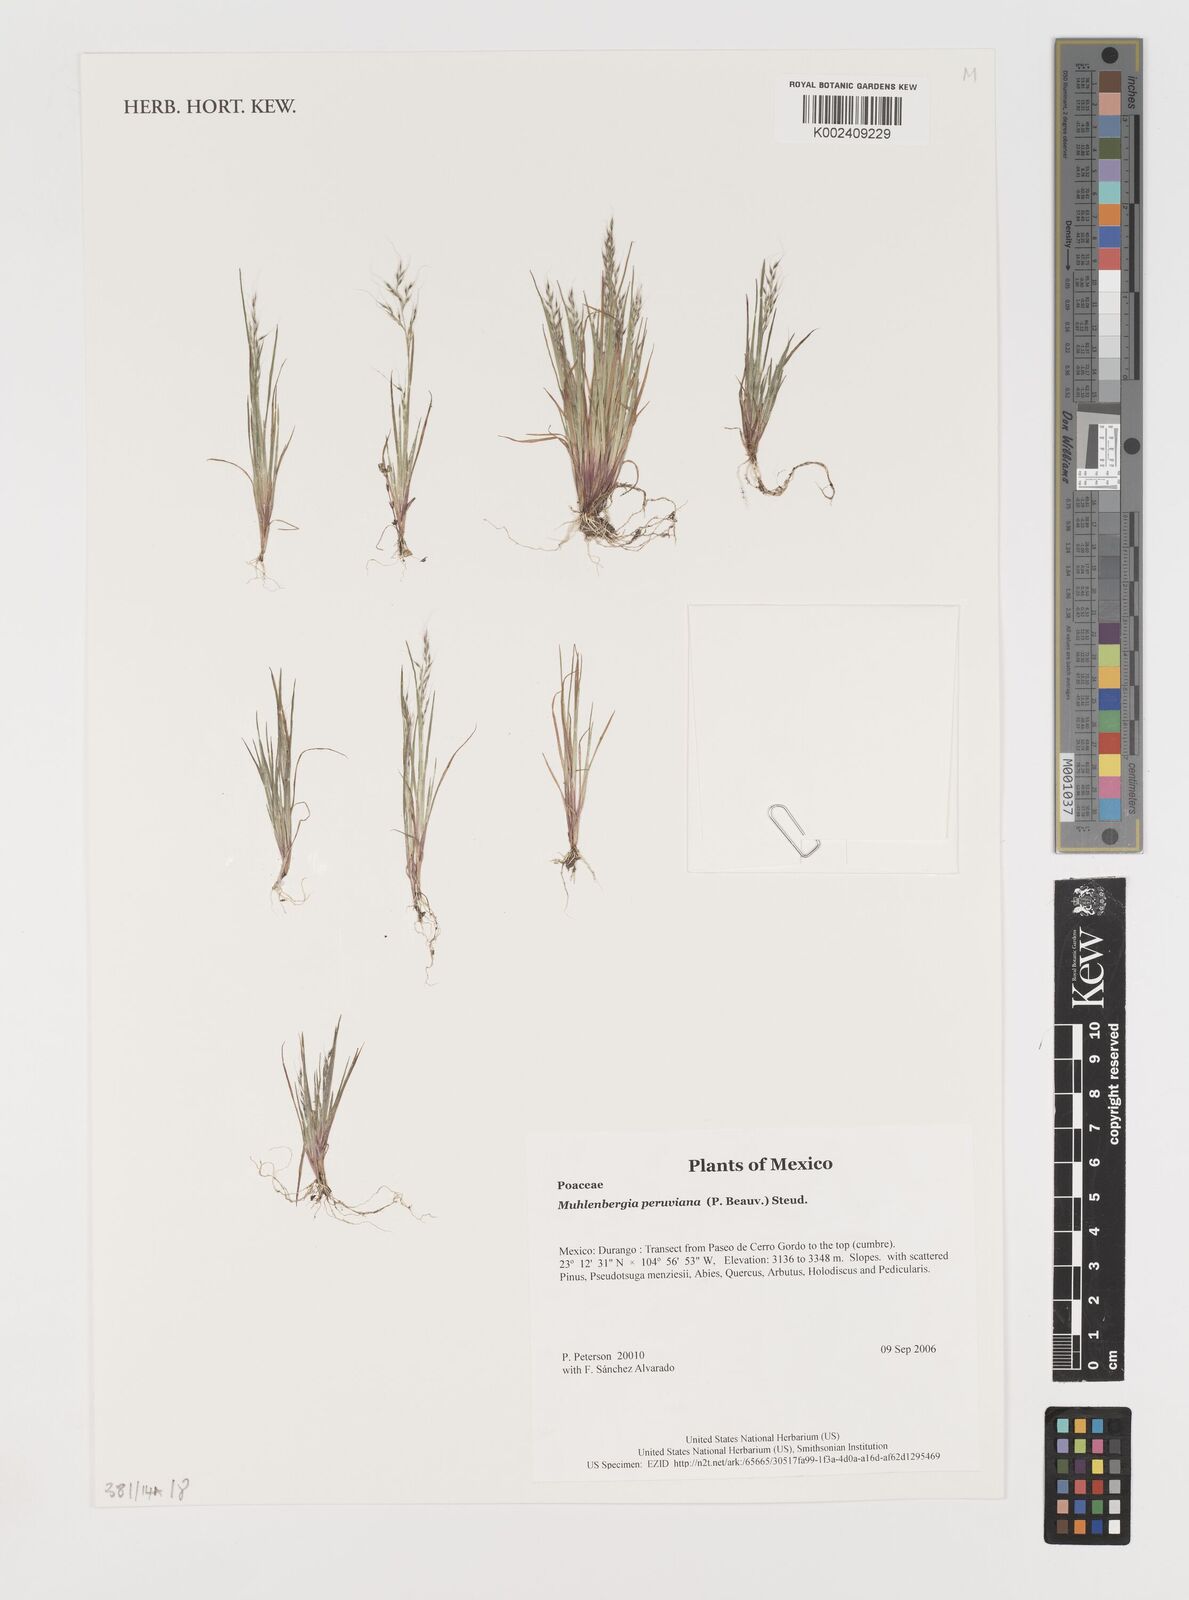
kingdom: Plantae
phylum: Tracheophyta
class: Liliopsida
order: Poales
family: Poaceae
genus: Muhlenbergia
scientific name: Muhlenbergia peruviana
